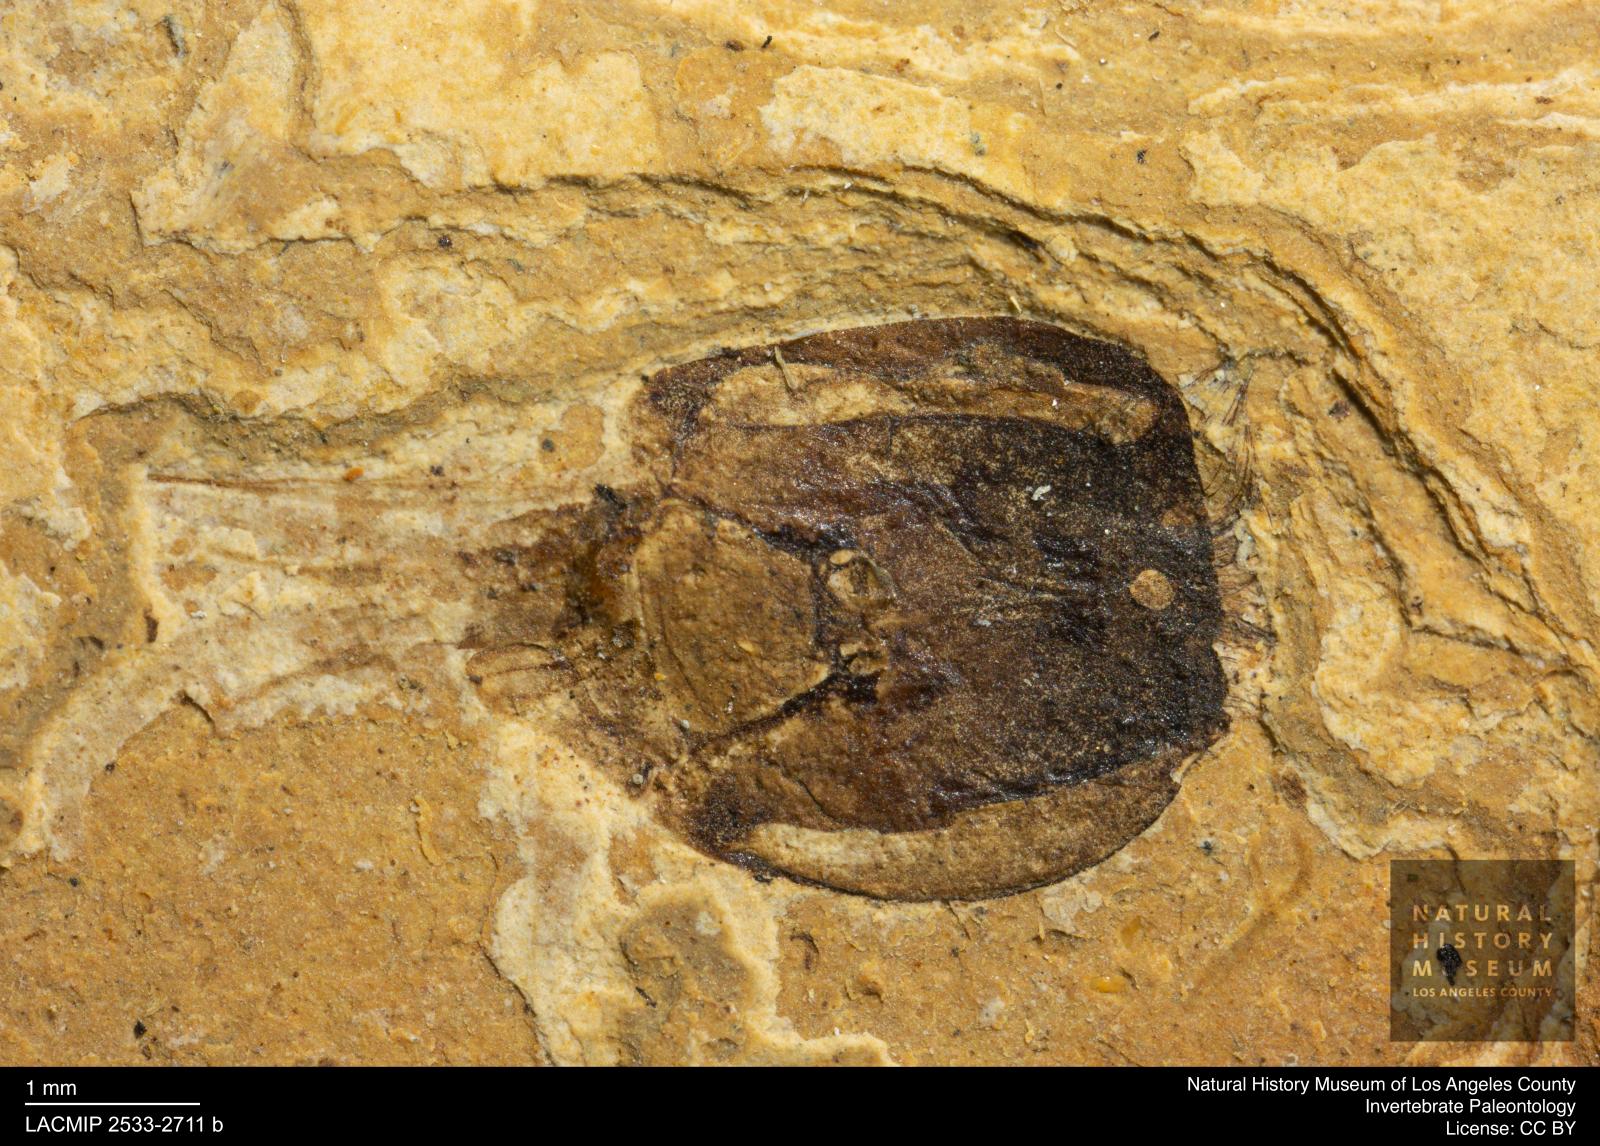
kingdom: Animalia
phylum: Arthropoda
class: Insecta
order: Hymenoptera
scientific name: Hymenoptera
